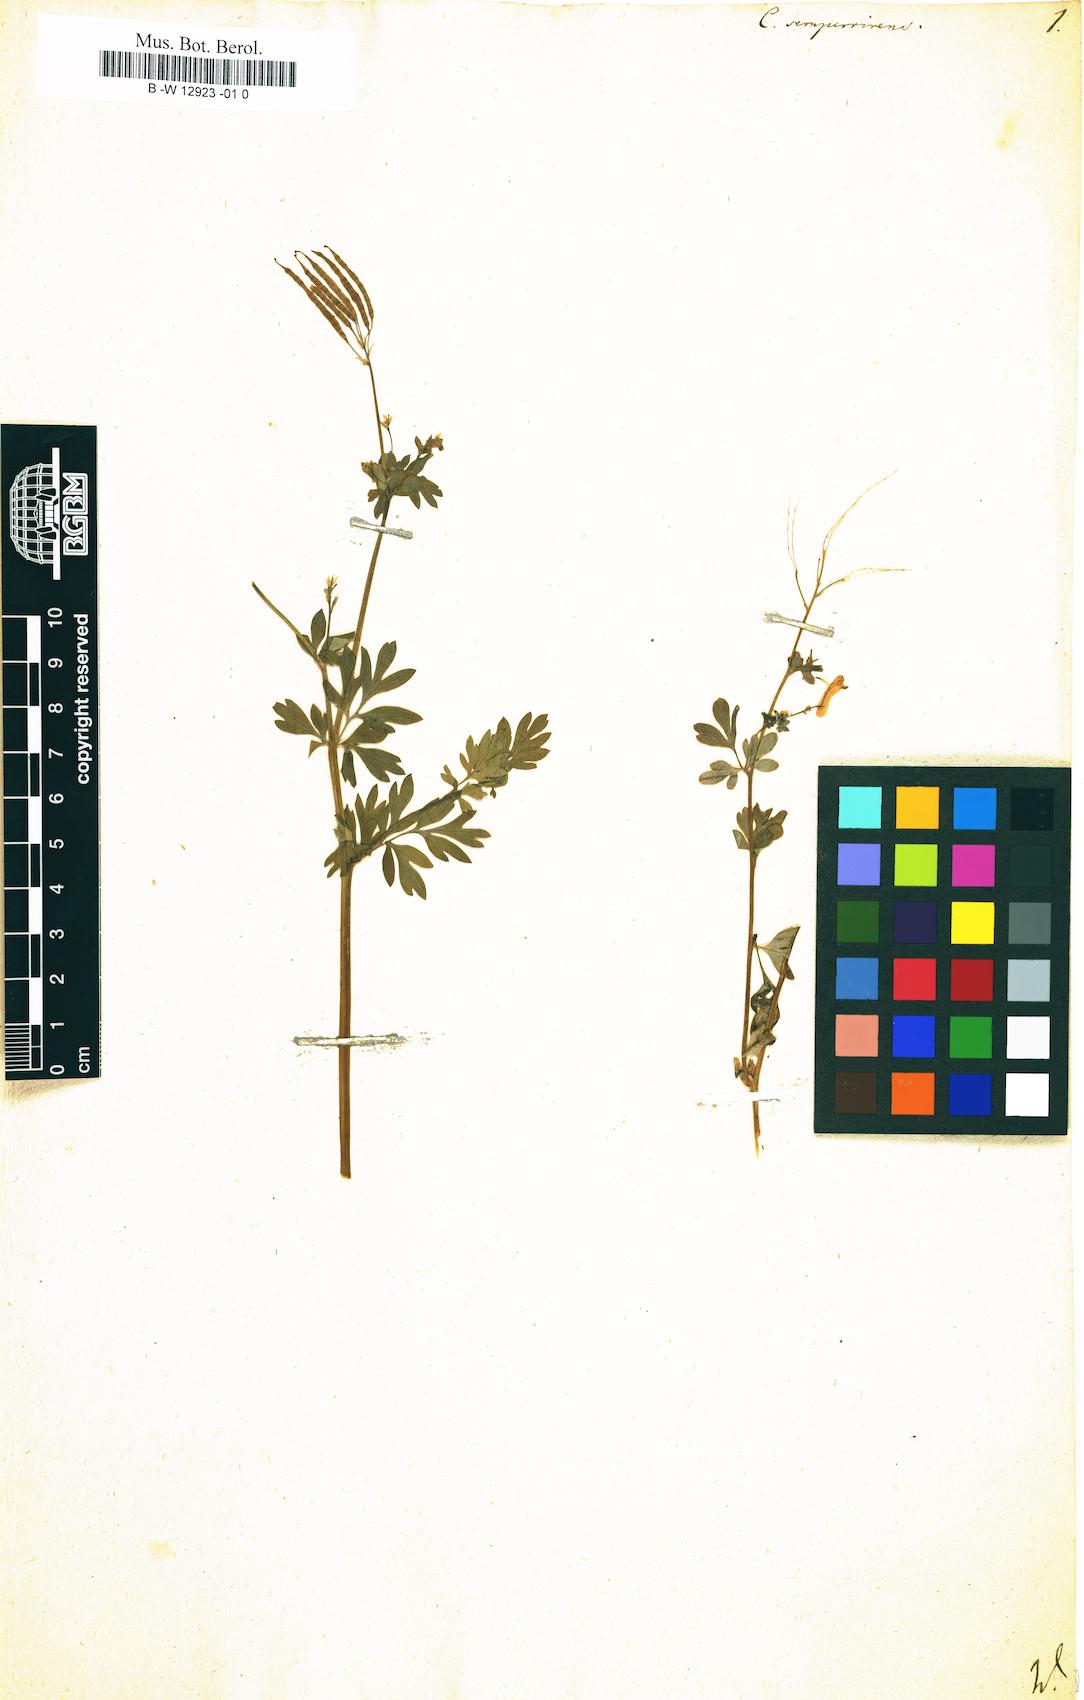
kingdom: Plantae
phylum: Tracheophyta
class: Magnoliopsida
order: Ranunculales
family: Papaveraceae
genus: Capnoides
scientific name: Capnoides sempervirens
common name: Rock harlequin
